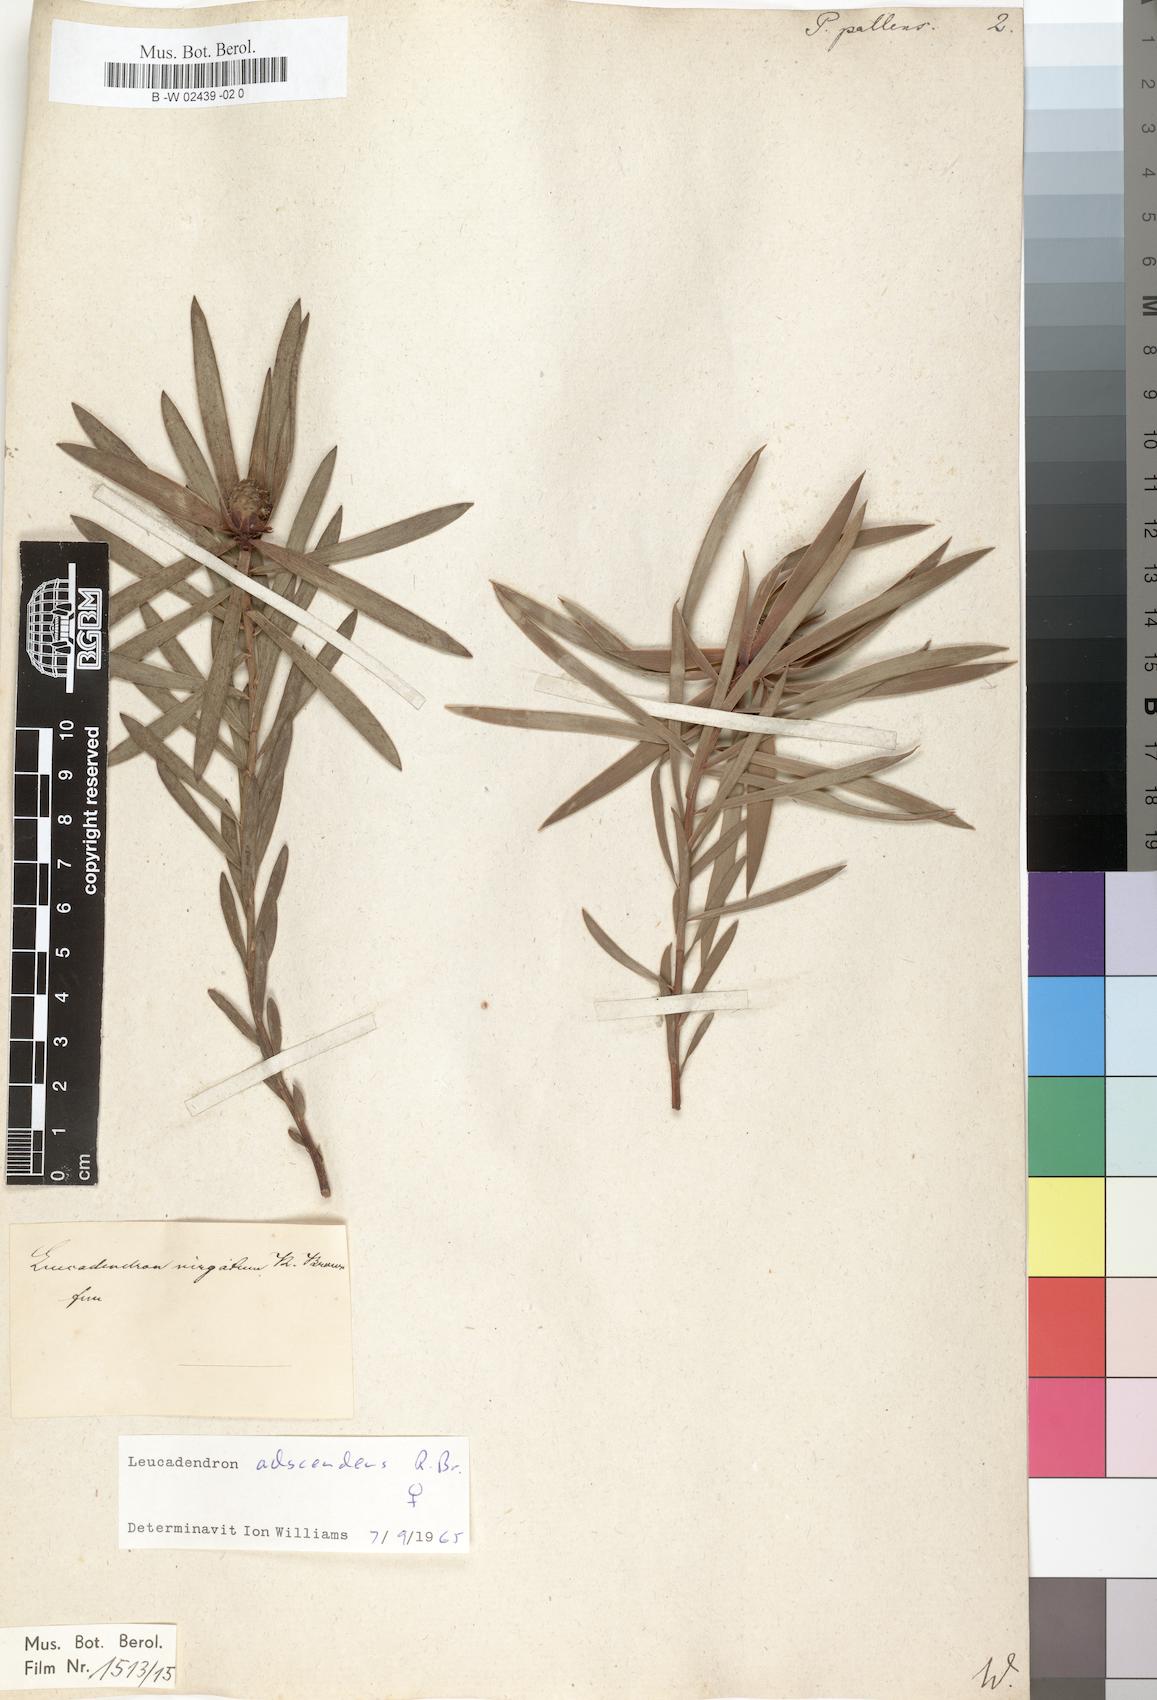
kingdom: Plantae
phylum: Tracheophyta
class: Magnoliopsida
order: Proteales
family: Proteaceae
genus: Leucadendron
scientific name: Leucadendron
